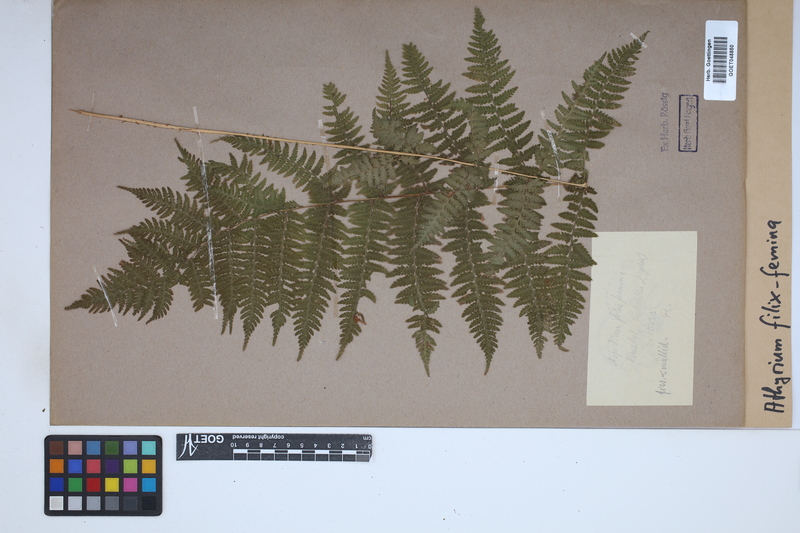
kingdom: Plantae
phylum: Tracheophyta
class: Polypodiopsida
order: Polypodiales
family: Athyriaceae
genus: Athyrium
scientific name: Athyrium filix-femina
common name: Lady fern
